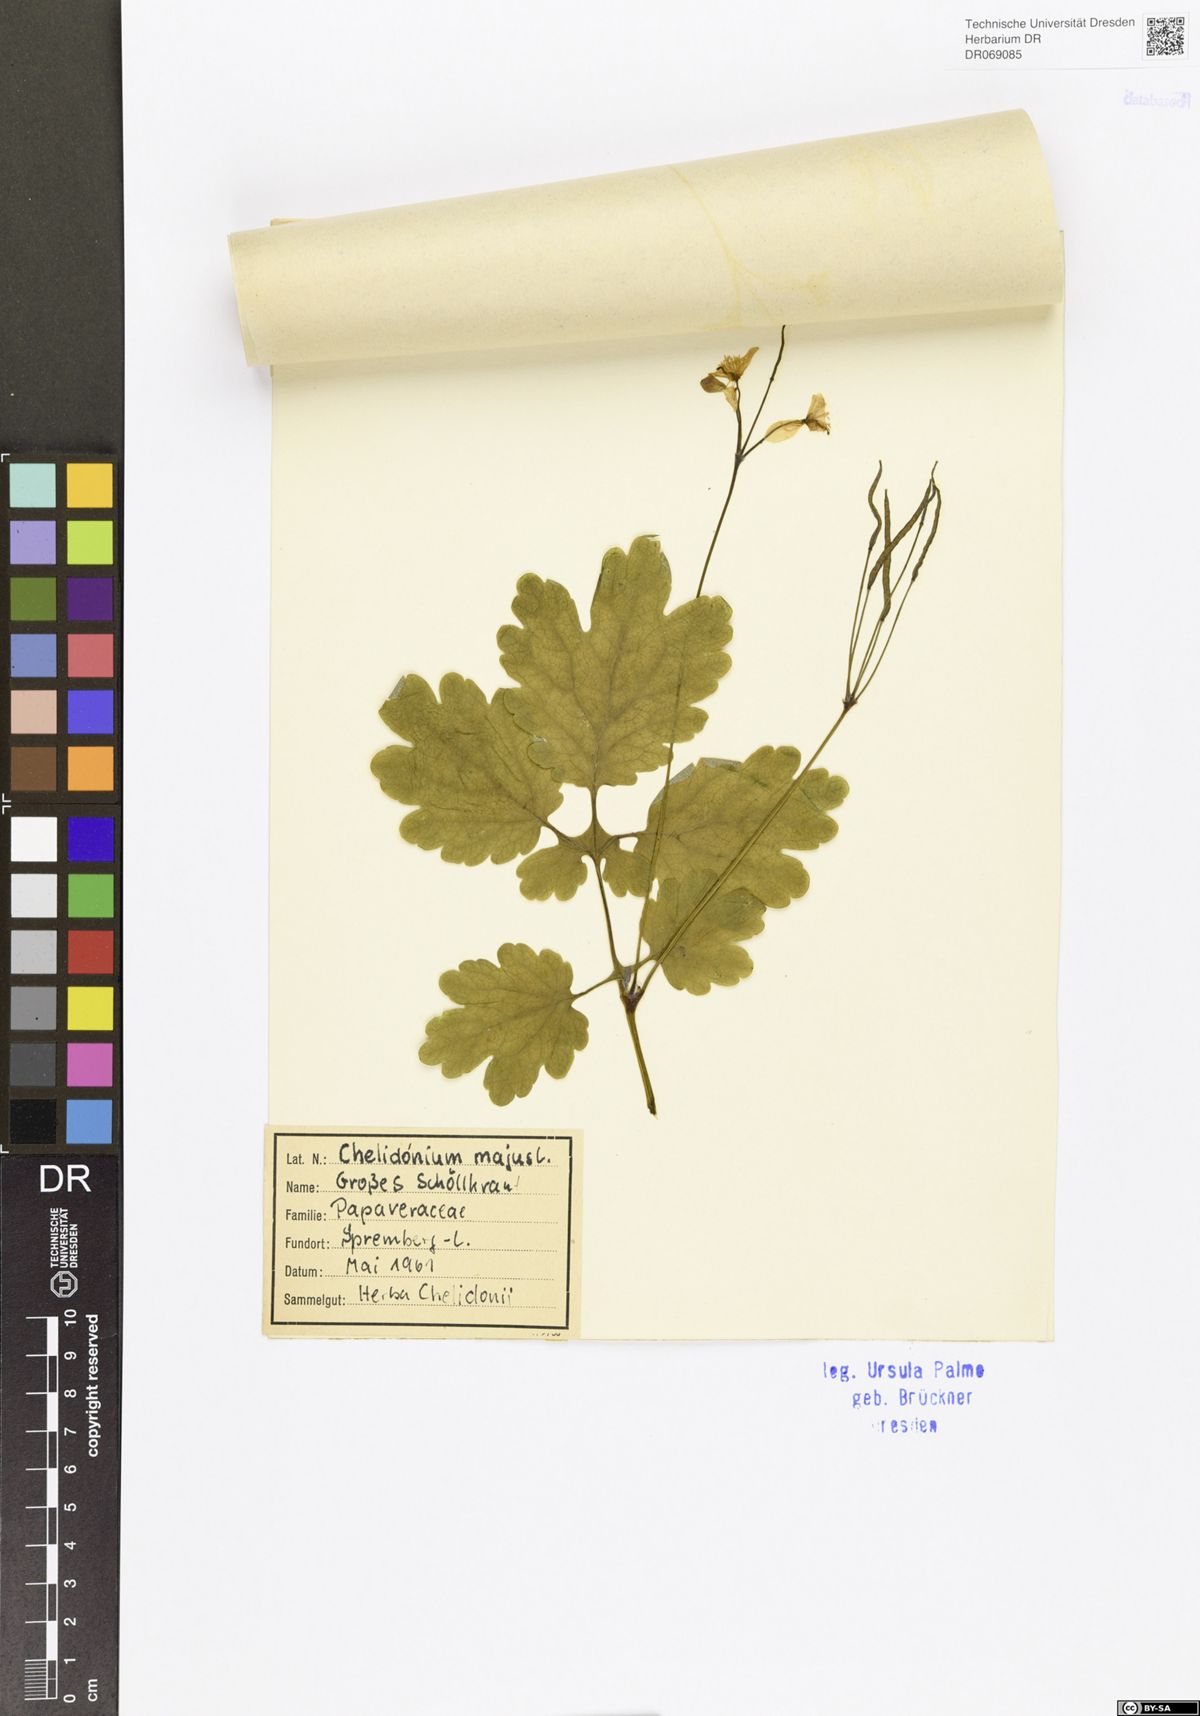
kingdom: Plantae
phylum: Tracheophyta
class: Magnoliopsida
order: Ranunculales
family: Papaveraceae
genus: Chelidonium
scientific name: Chelidonium majus
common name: Greater celandine
